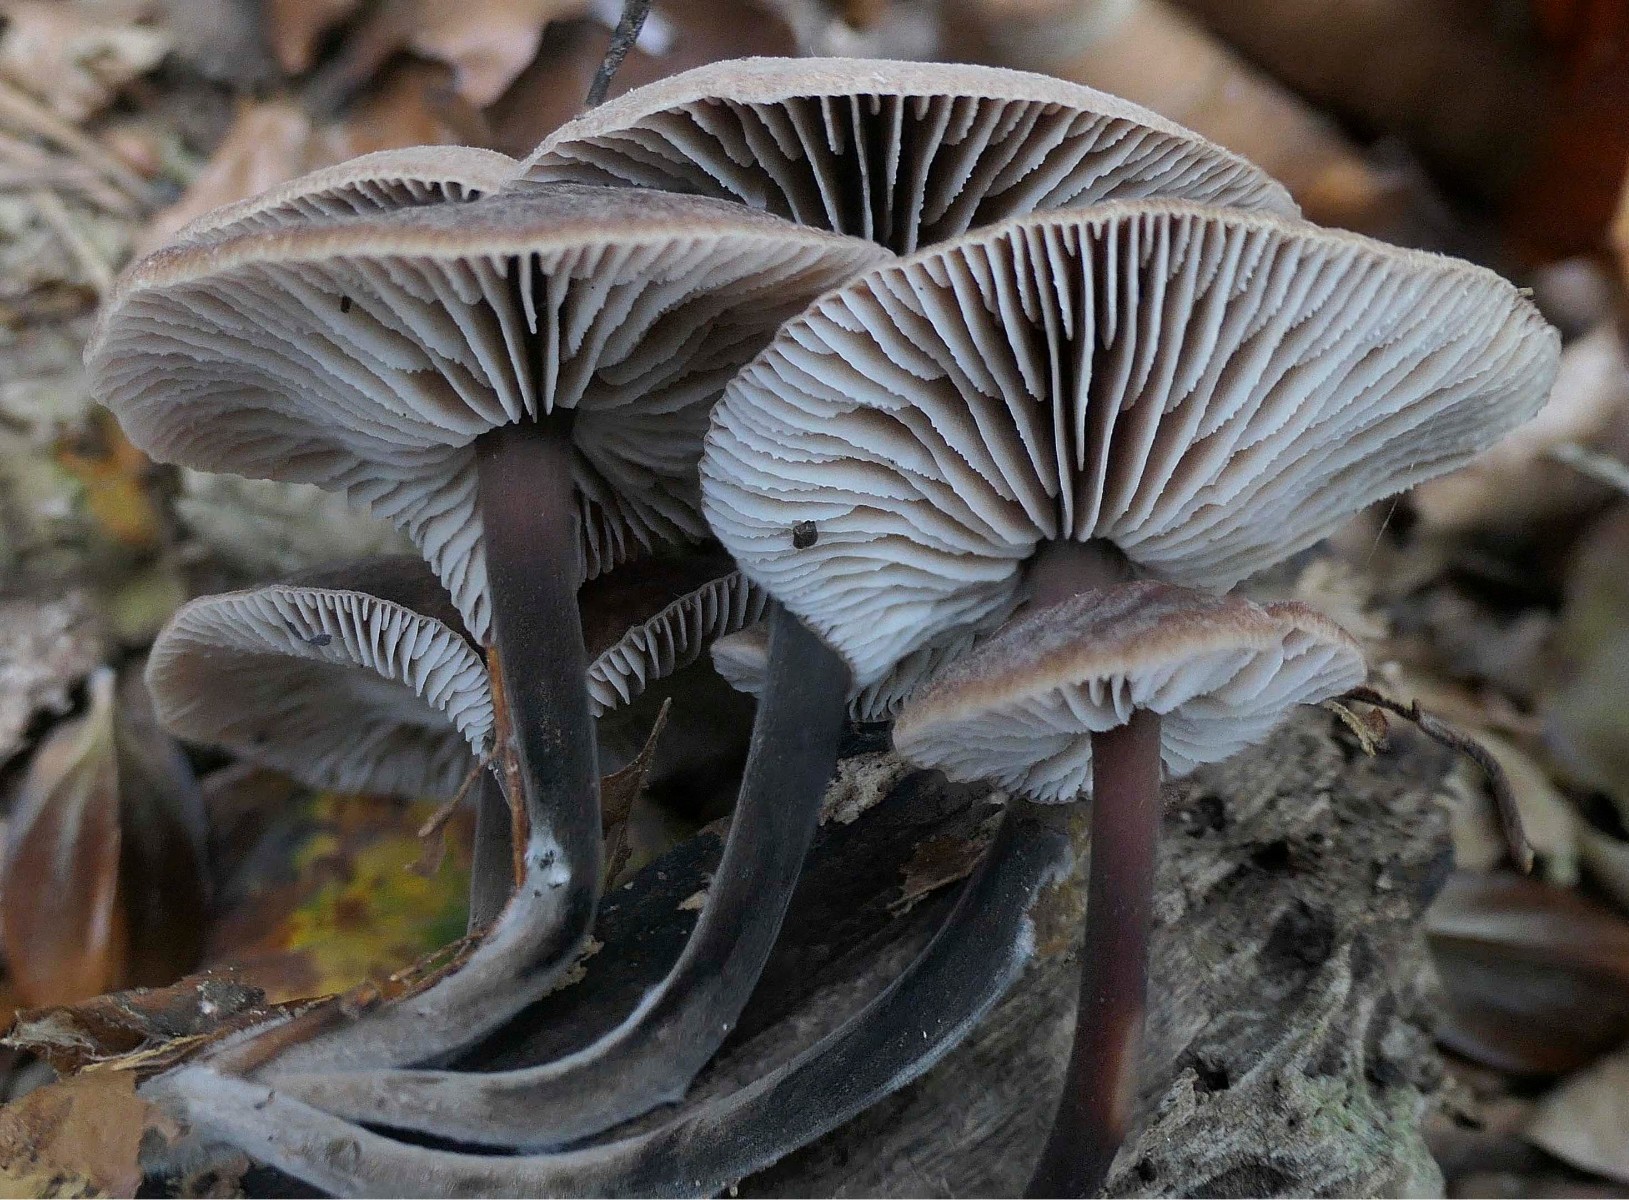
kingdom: Fungi
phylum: Basidiomycota
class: Agaricomycetes
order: Agaricales
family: Omphalotaceae
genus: Gymnopus
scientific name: Gymnopus brassicolens
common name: kål-fladhat
